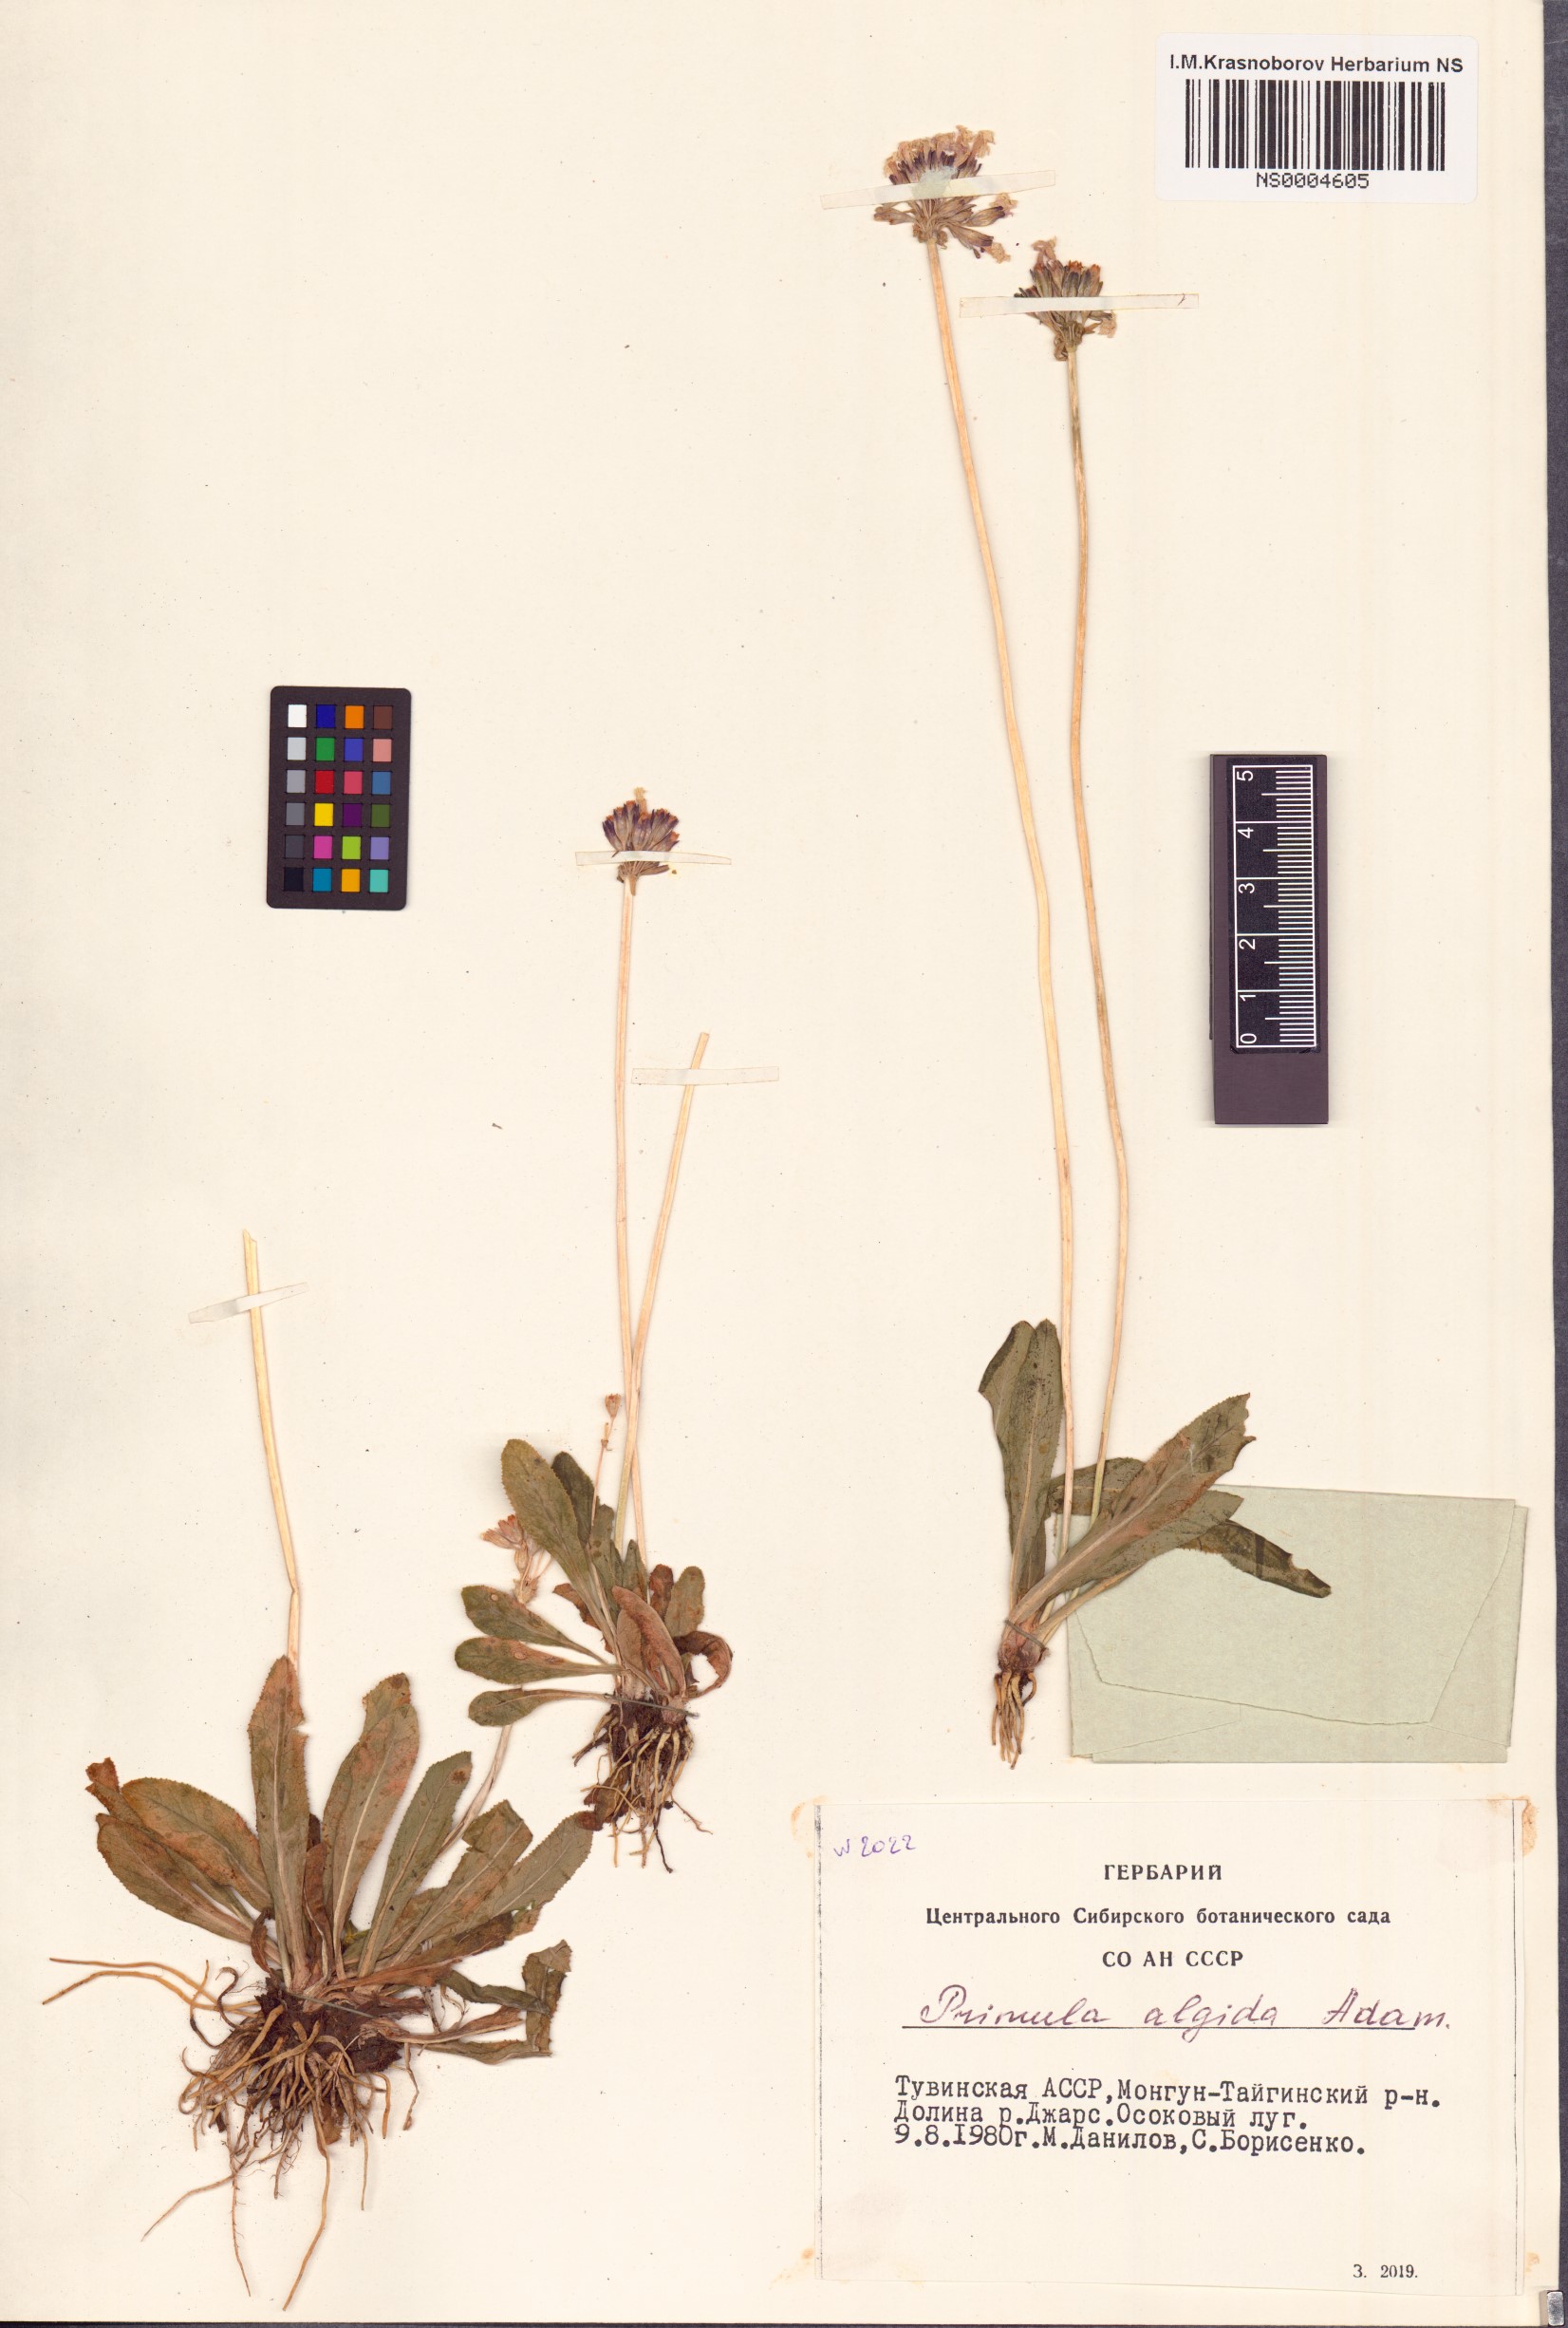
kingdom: Plantae
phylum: Tracheophyta
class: Magnoliopsida
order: Ericales
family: Primulaceae
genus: Primula
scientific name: Primula algida
